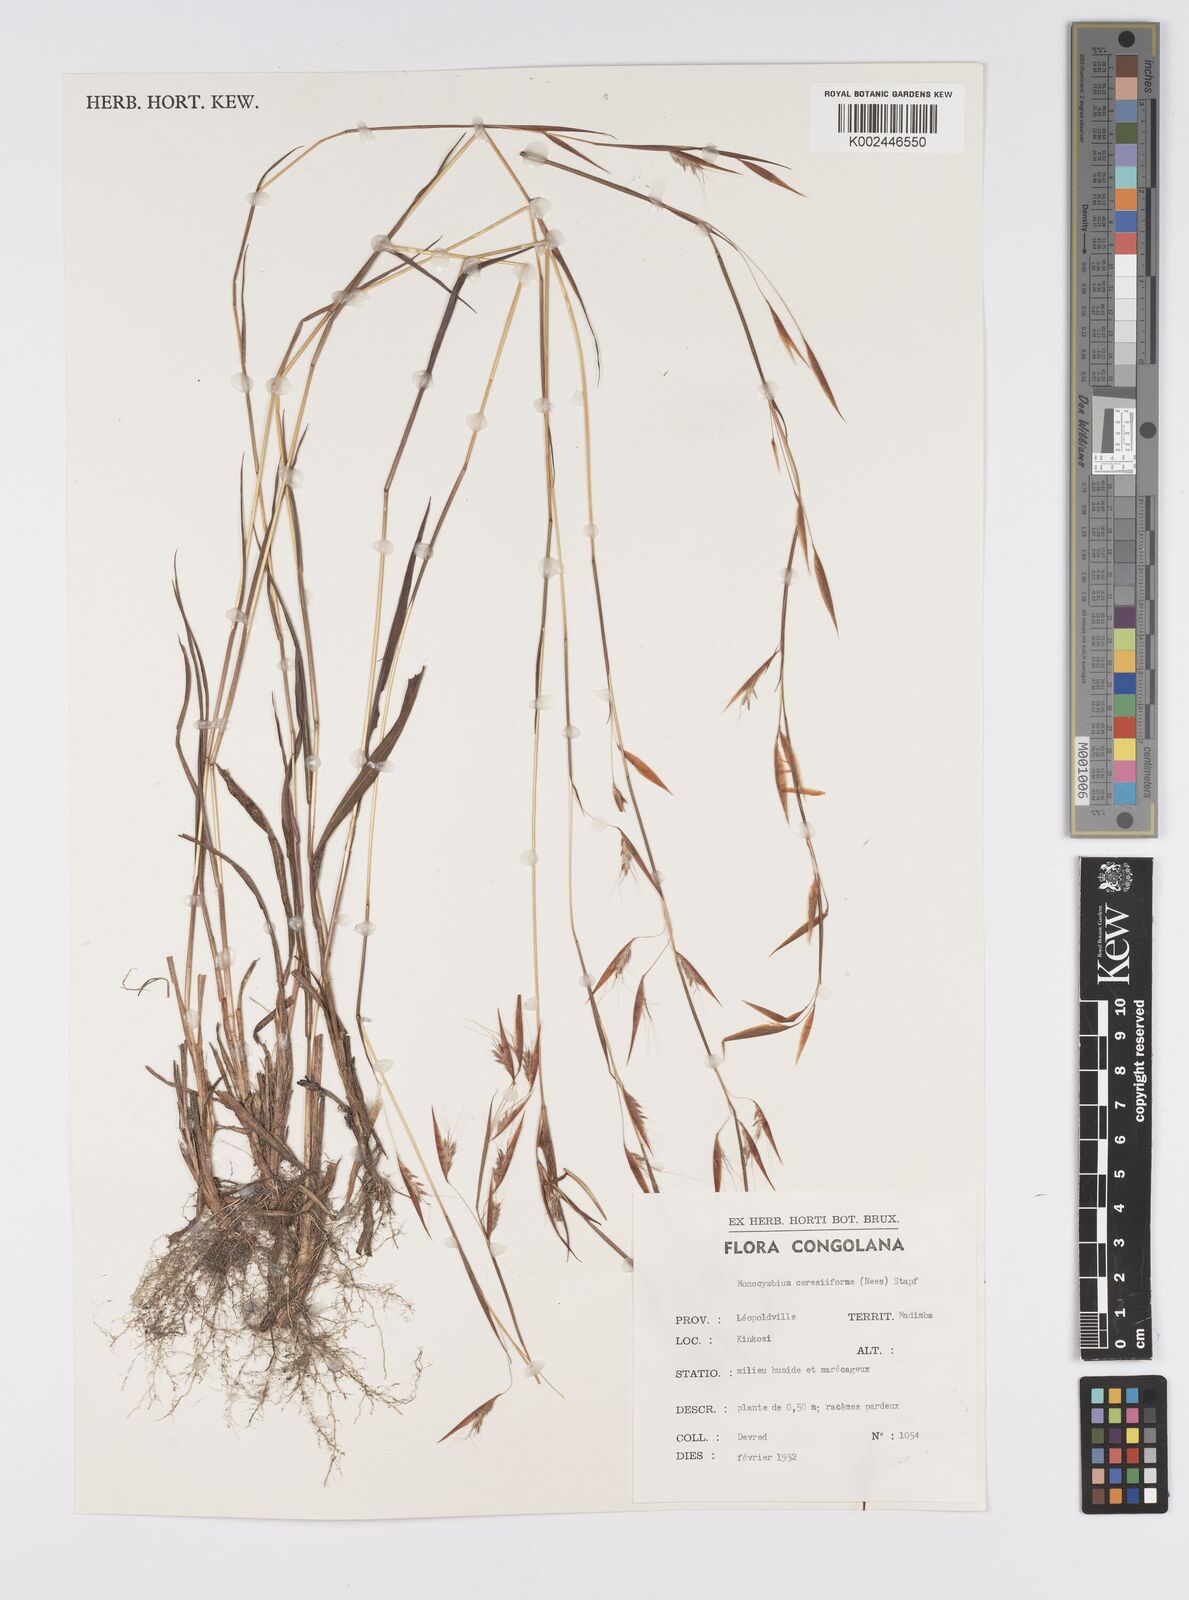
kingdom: Plantae
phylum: Tracheophyta
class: Liliopsida
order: Poales
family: Poaceae
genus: Monocymbium
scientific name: Monocymbium ceresiiforme
